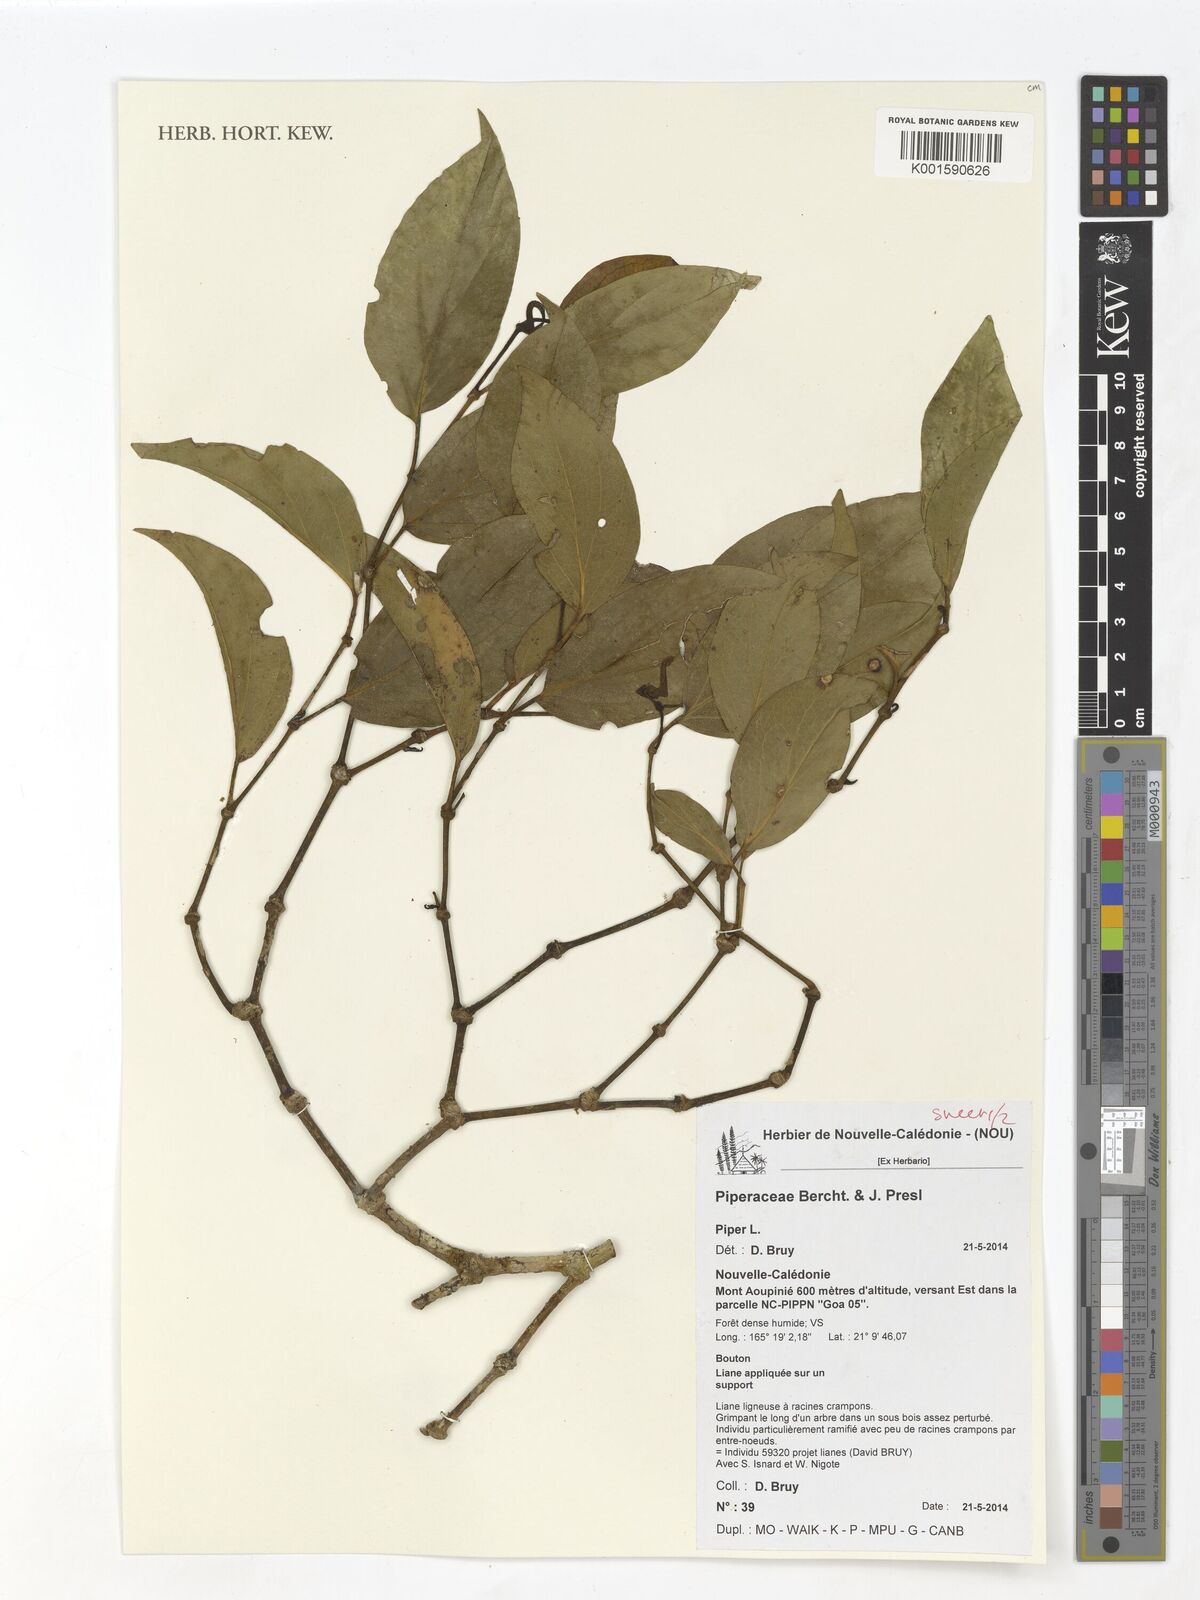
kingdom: Plantae
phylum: Tracheophyta
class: Magnoliopsida
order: Piperales
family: Piperaceae
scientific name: Piperaceae
